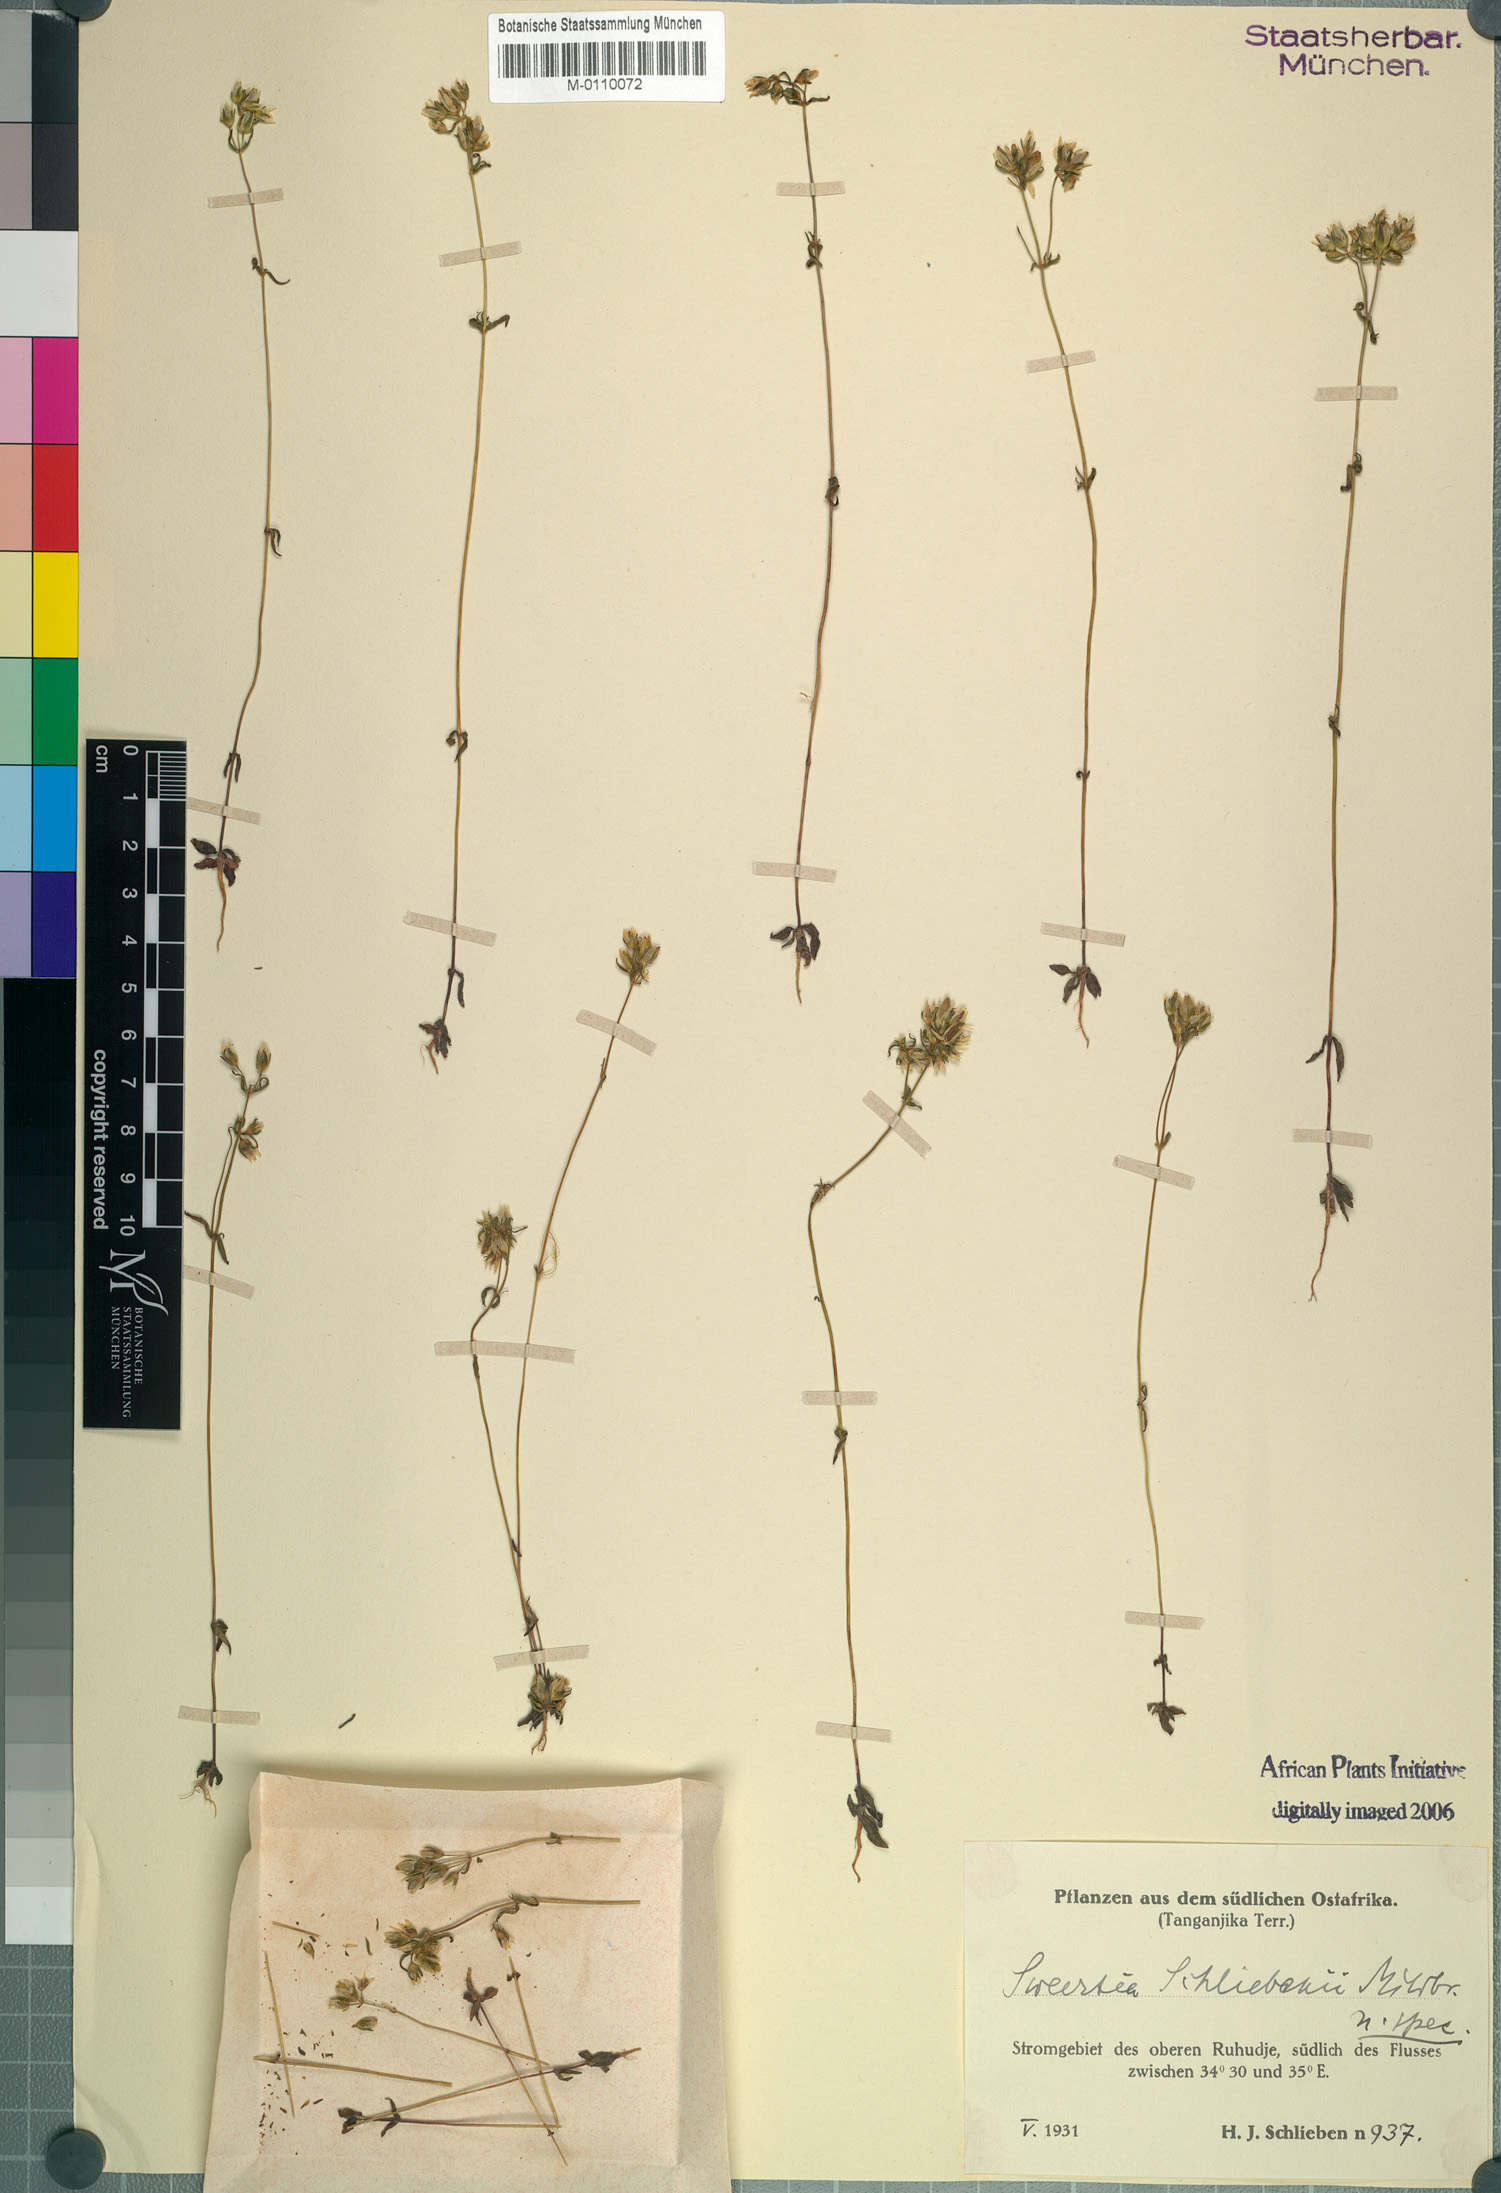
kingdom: Plantae
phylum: Tracheophyta
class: Magnoliopsida
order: Gentianales
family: Gentianaceae
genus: Swertia
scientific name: Swertia schliebenii
